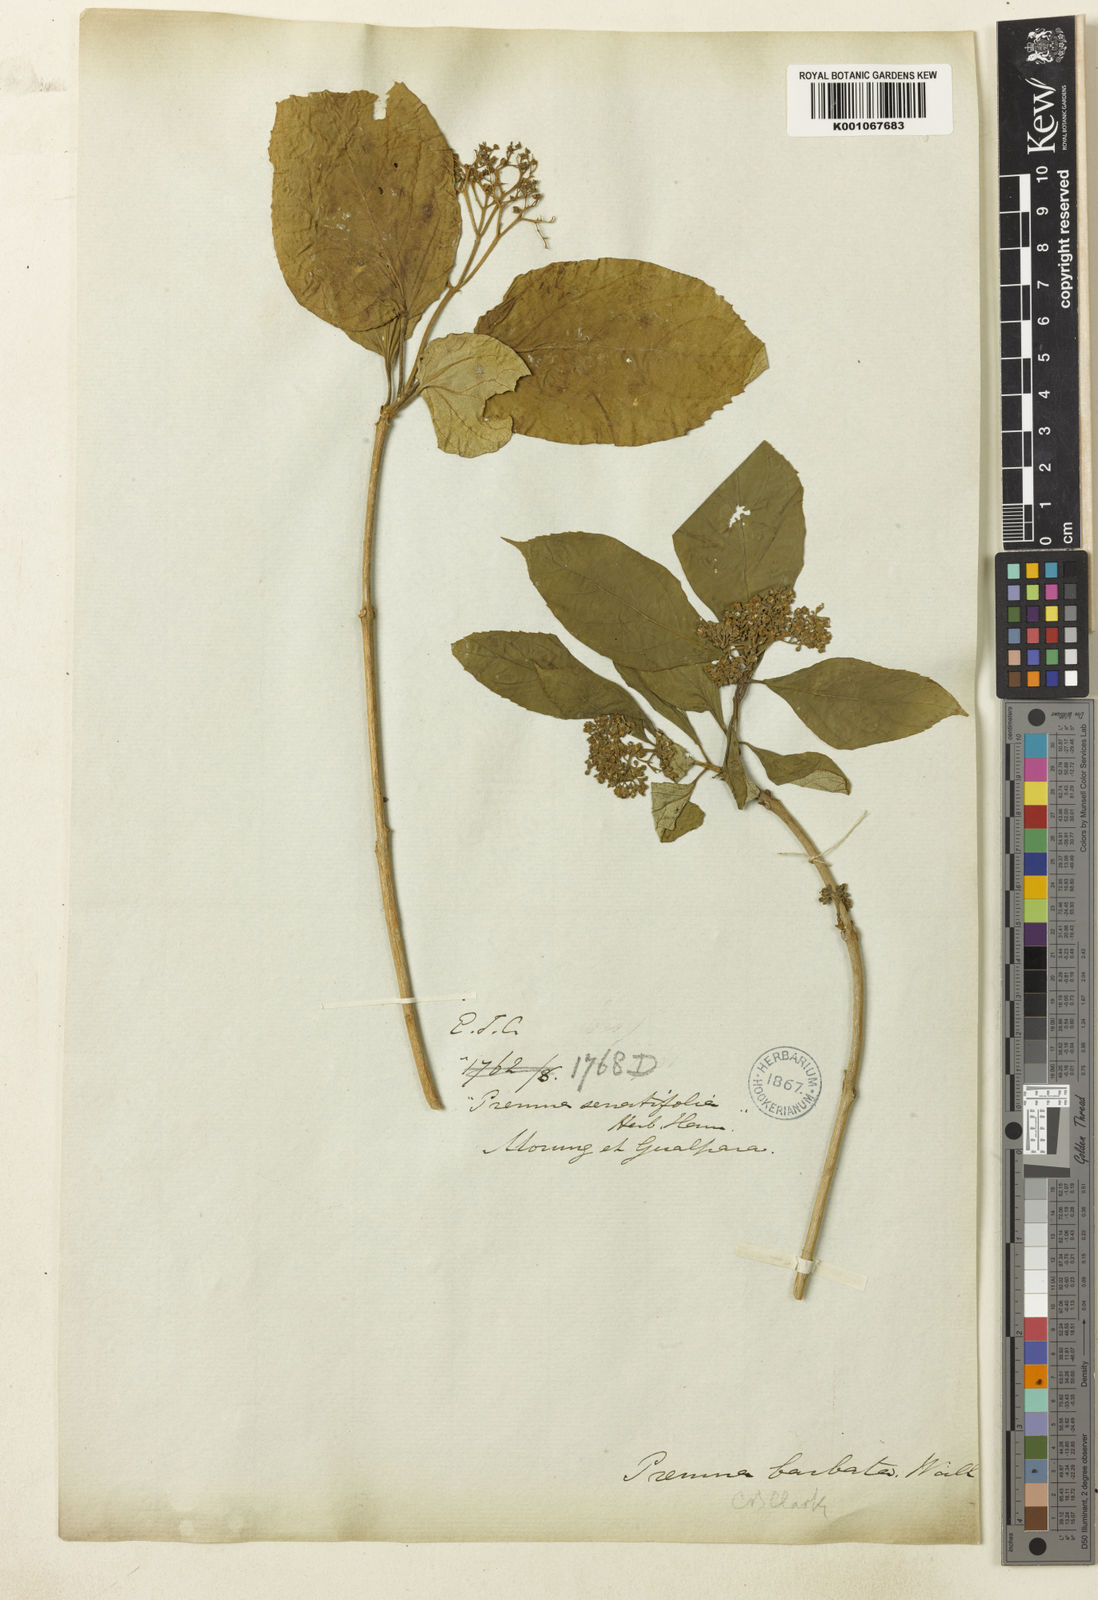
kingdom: Plantae
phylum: Tracheophyta
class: Magnoliopsida
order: Lamiales
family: Lamiaceae
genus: Premna
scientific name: Premna
